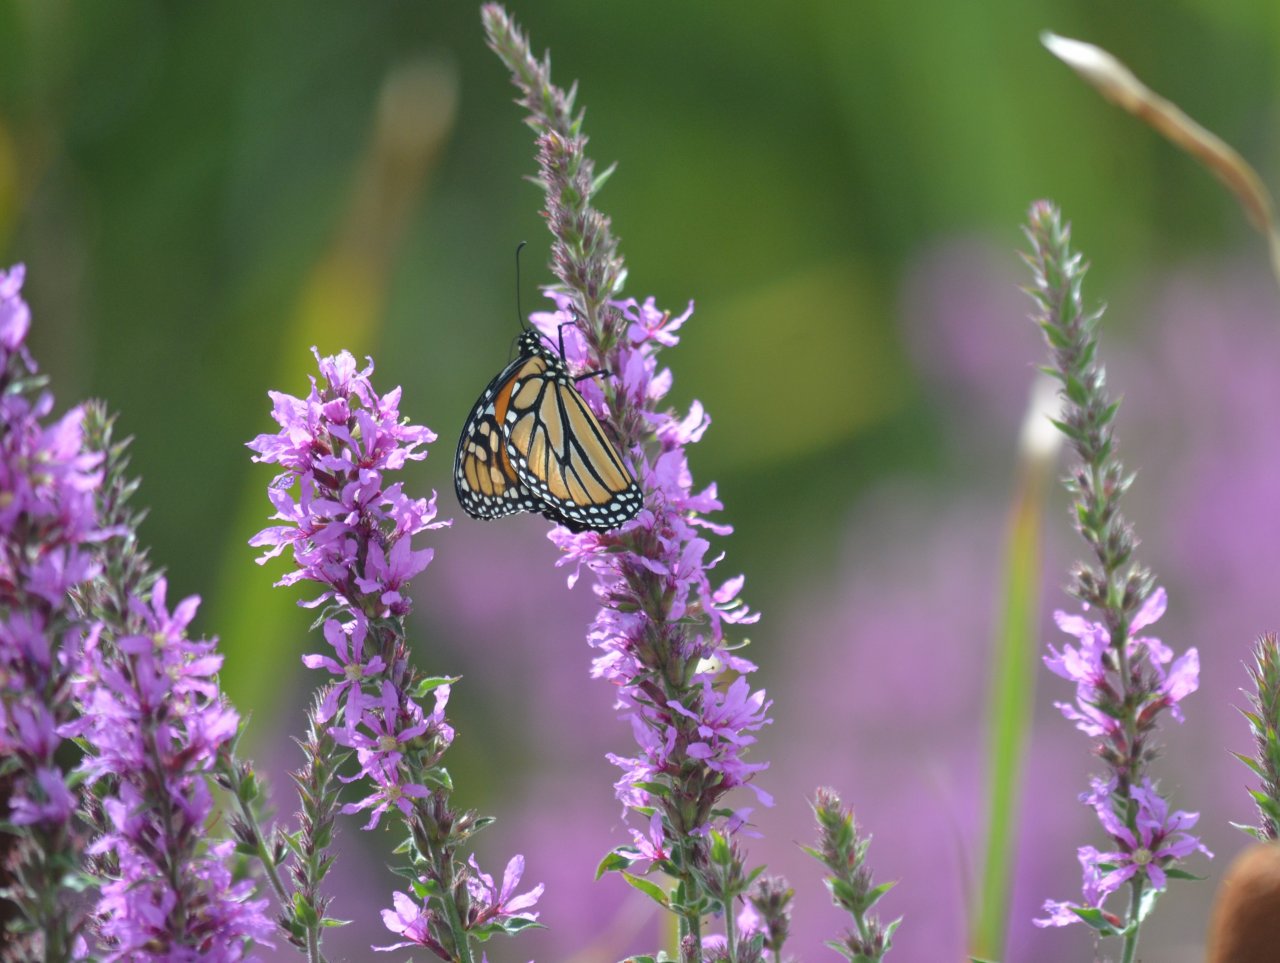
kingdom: Animalia
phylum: Arthropoda
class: Insecta
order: Lepidoptera
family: Nymphalidae
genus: Danaus
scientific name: Danaus plexippus
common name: Monarch
